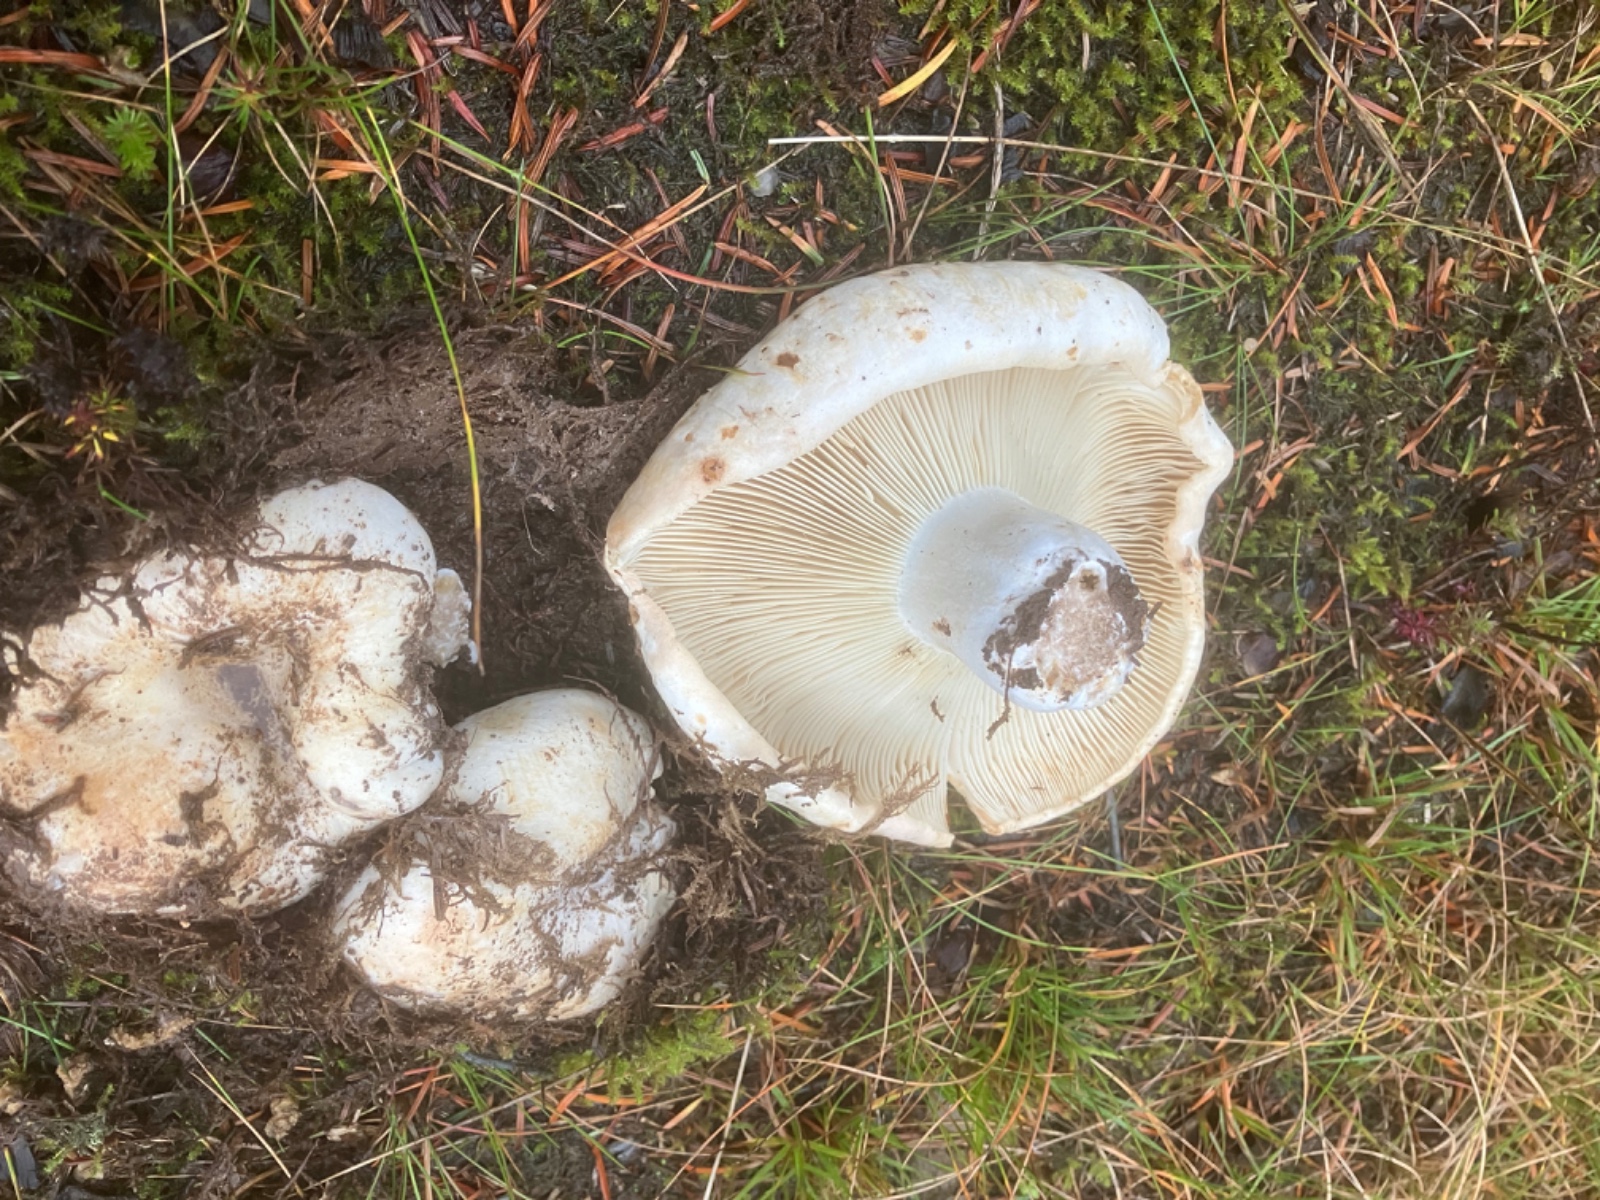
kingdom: Fungi
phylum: Basidiomycota
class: Agaricomycetes
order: Russulales
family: Russulaceae
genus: Russula
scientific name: Russula delica
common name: almindelig tragt-skørhat
